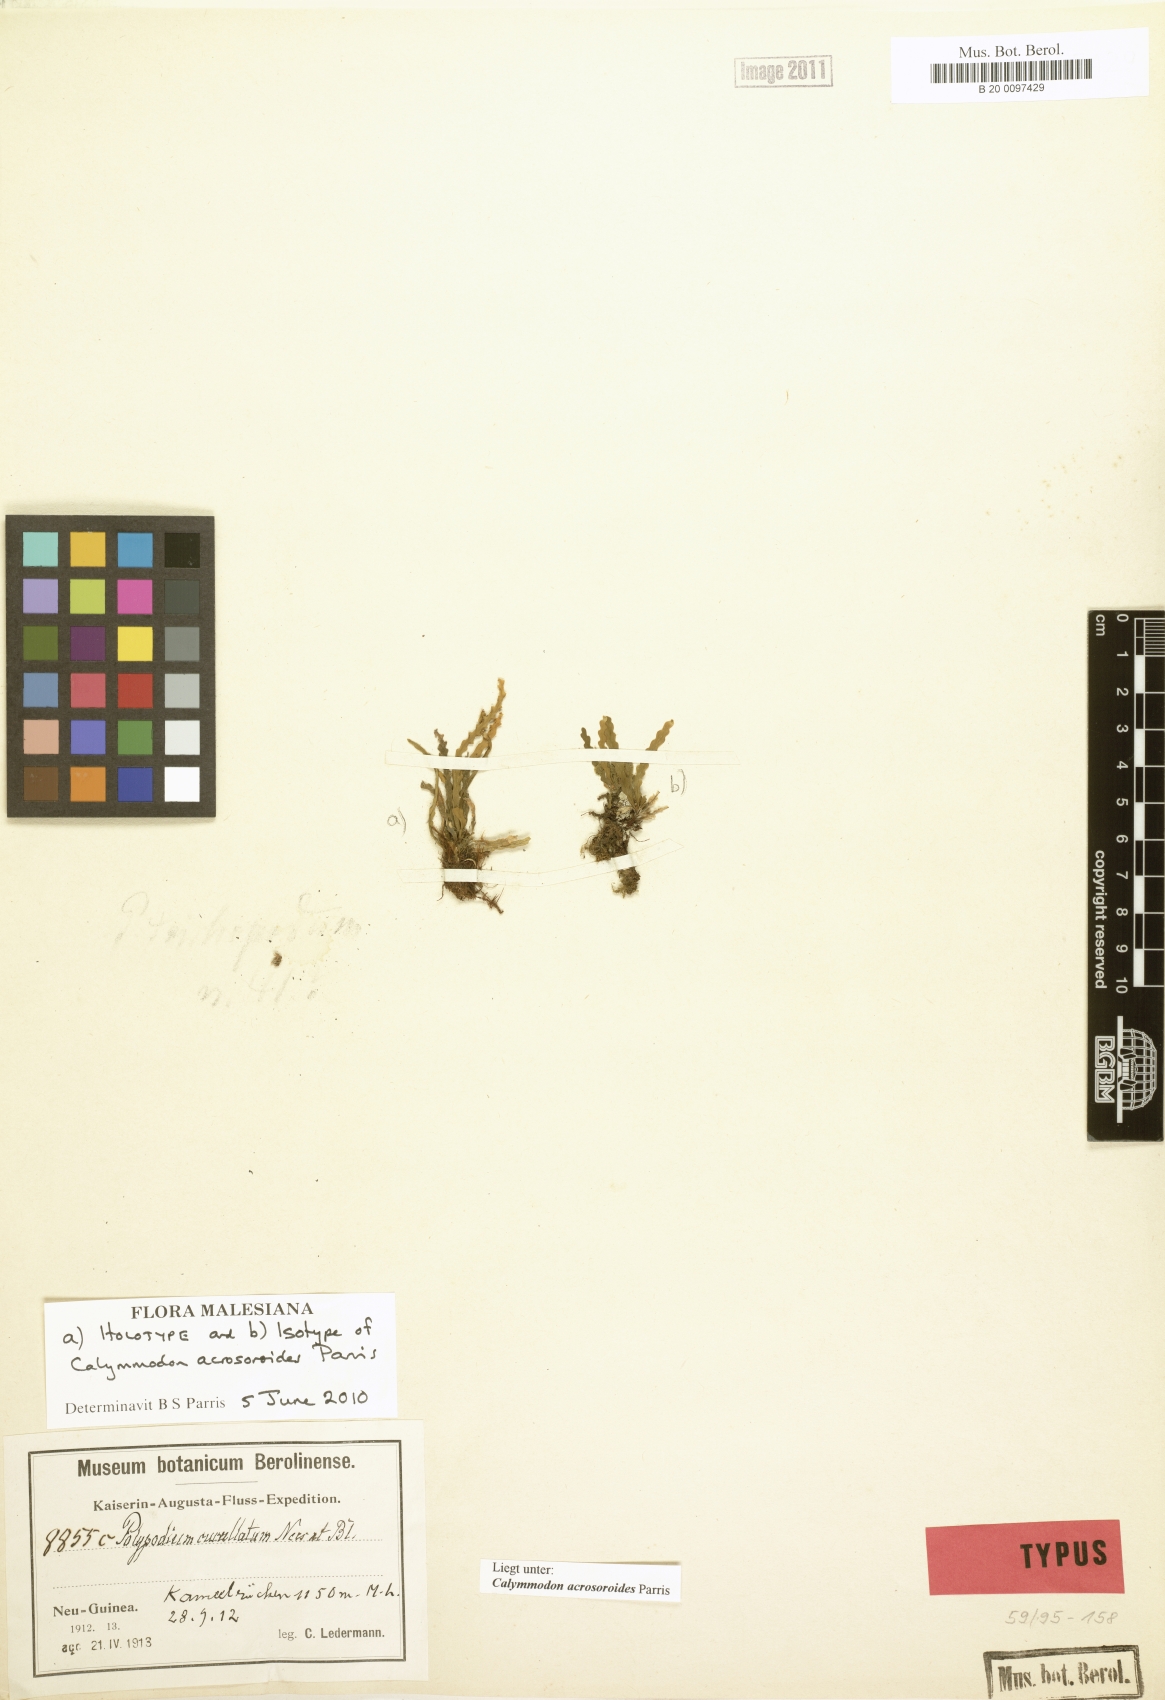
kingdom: Plantae
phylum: Tracheophyta
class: Polypodiopsida
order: Polypodiales
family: Polypodiaceae
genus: Calymmodon
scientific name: Calymmodon acrosoroides
